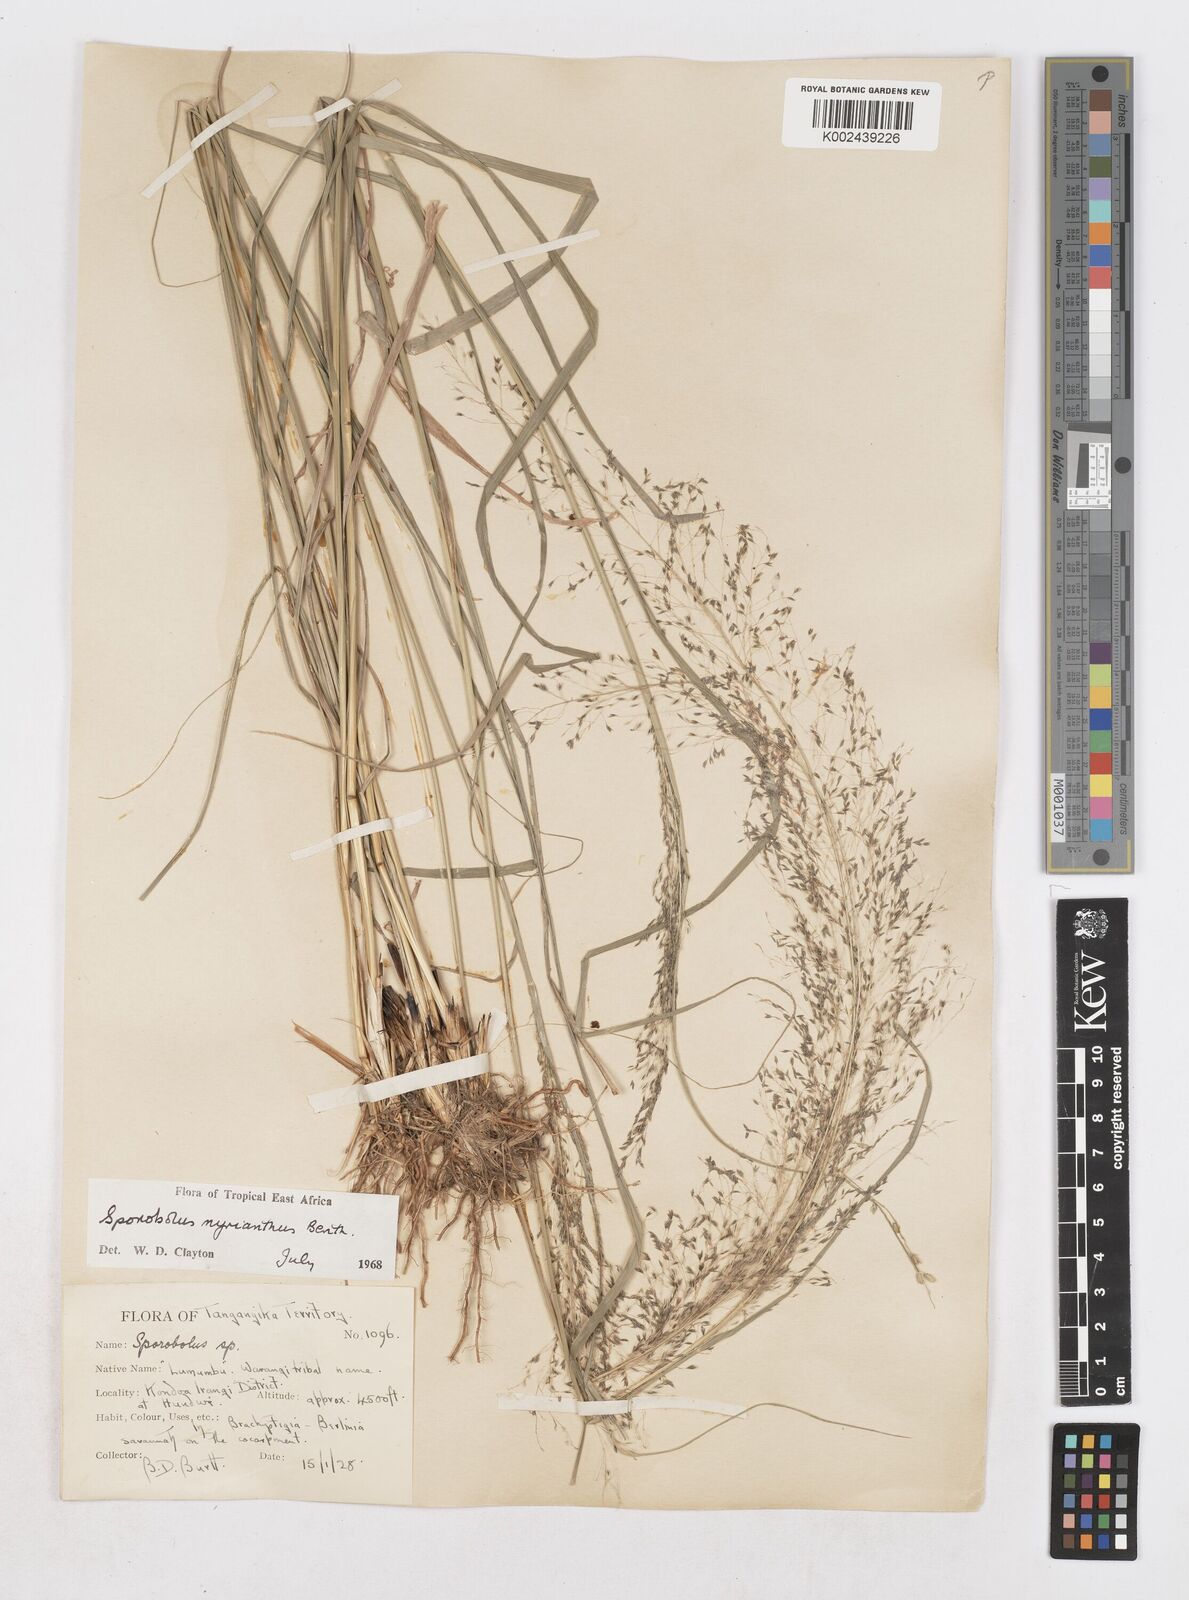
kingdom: Plantae
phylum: Tracheophyta
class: Liliopsida
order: Poales
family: Poaceae
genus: Sporobolus
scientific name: Sporobolus myrianthus
